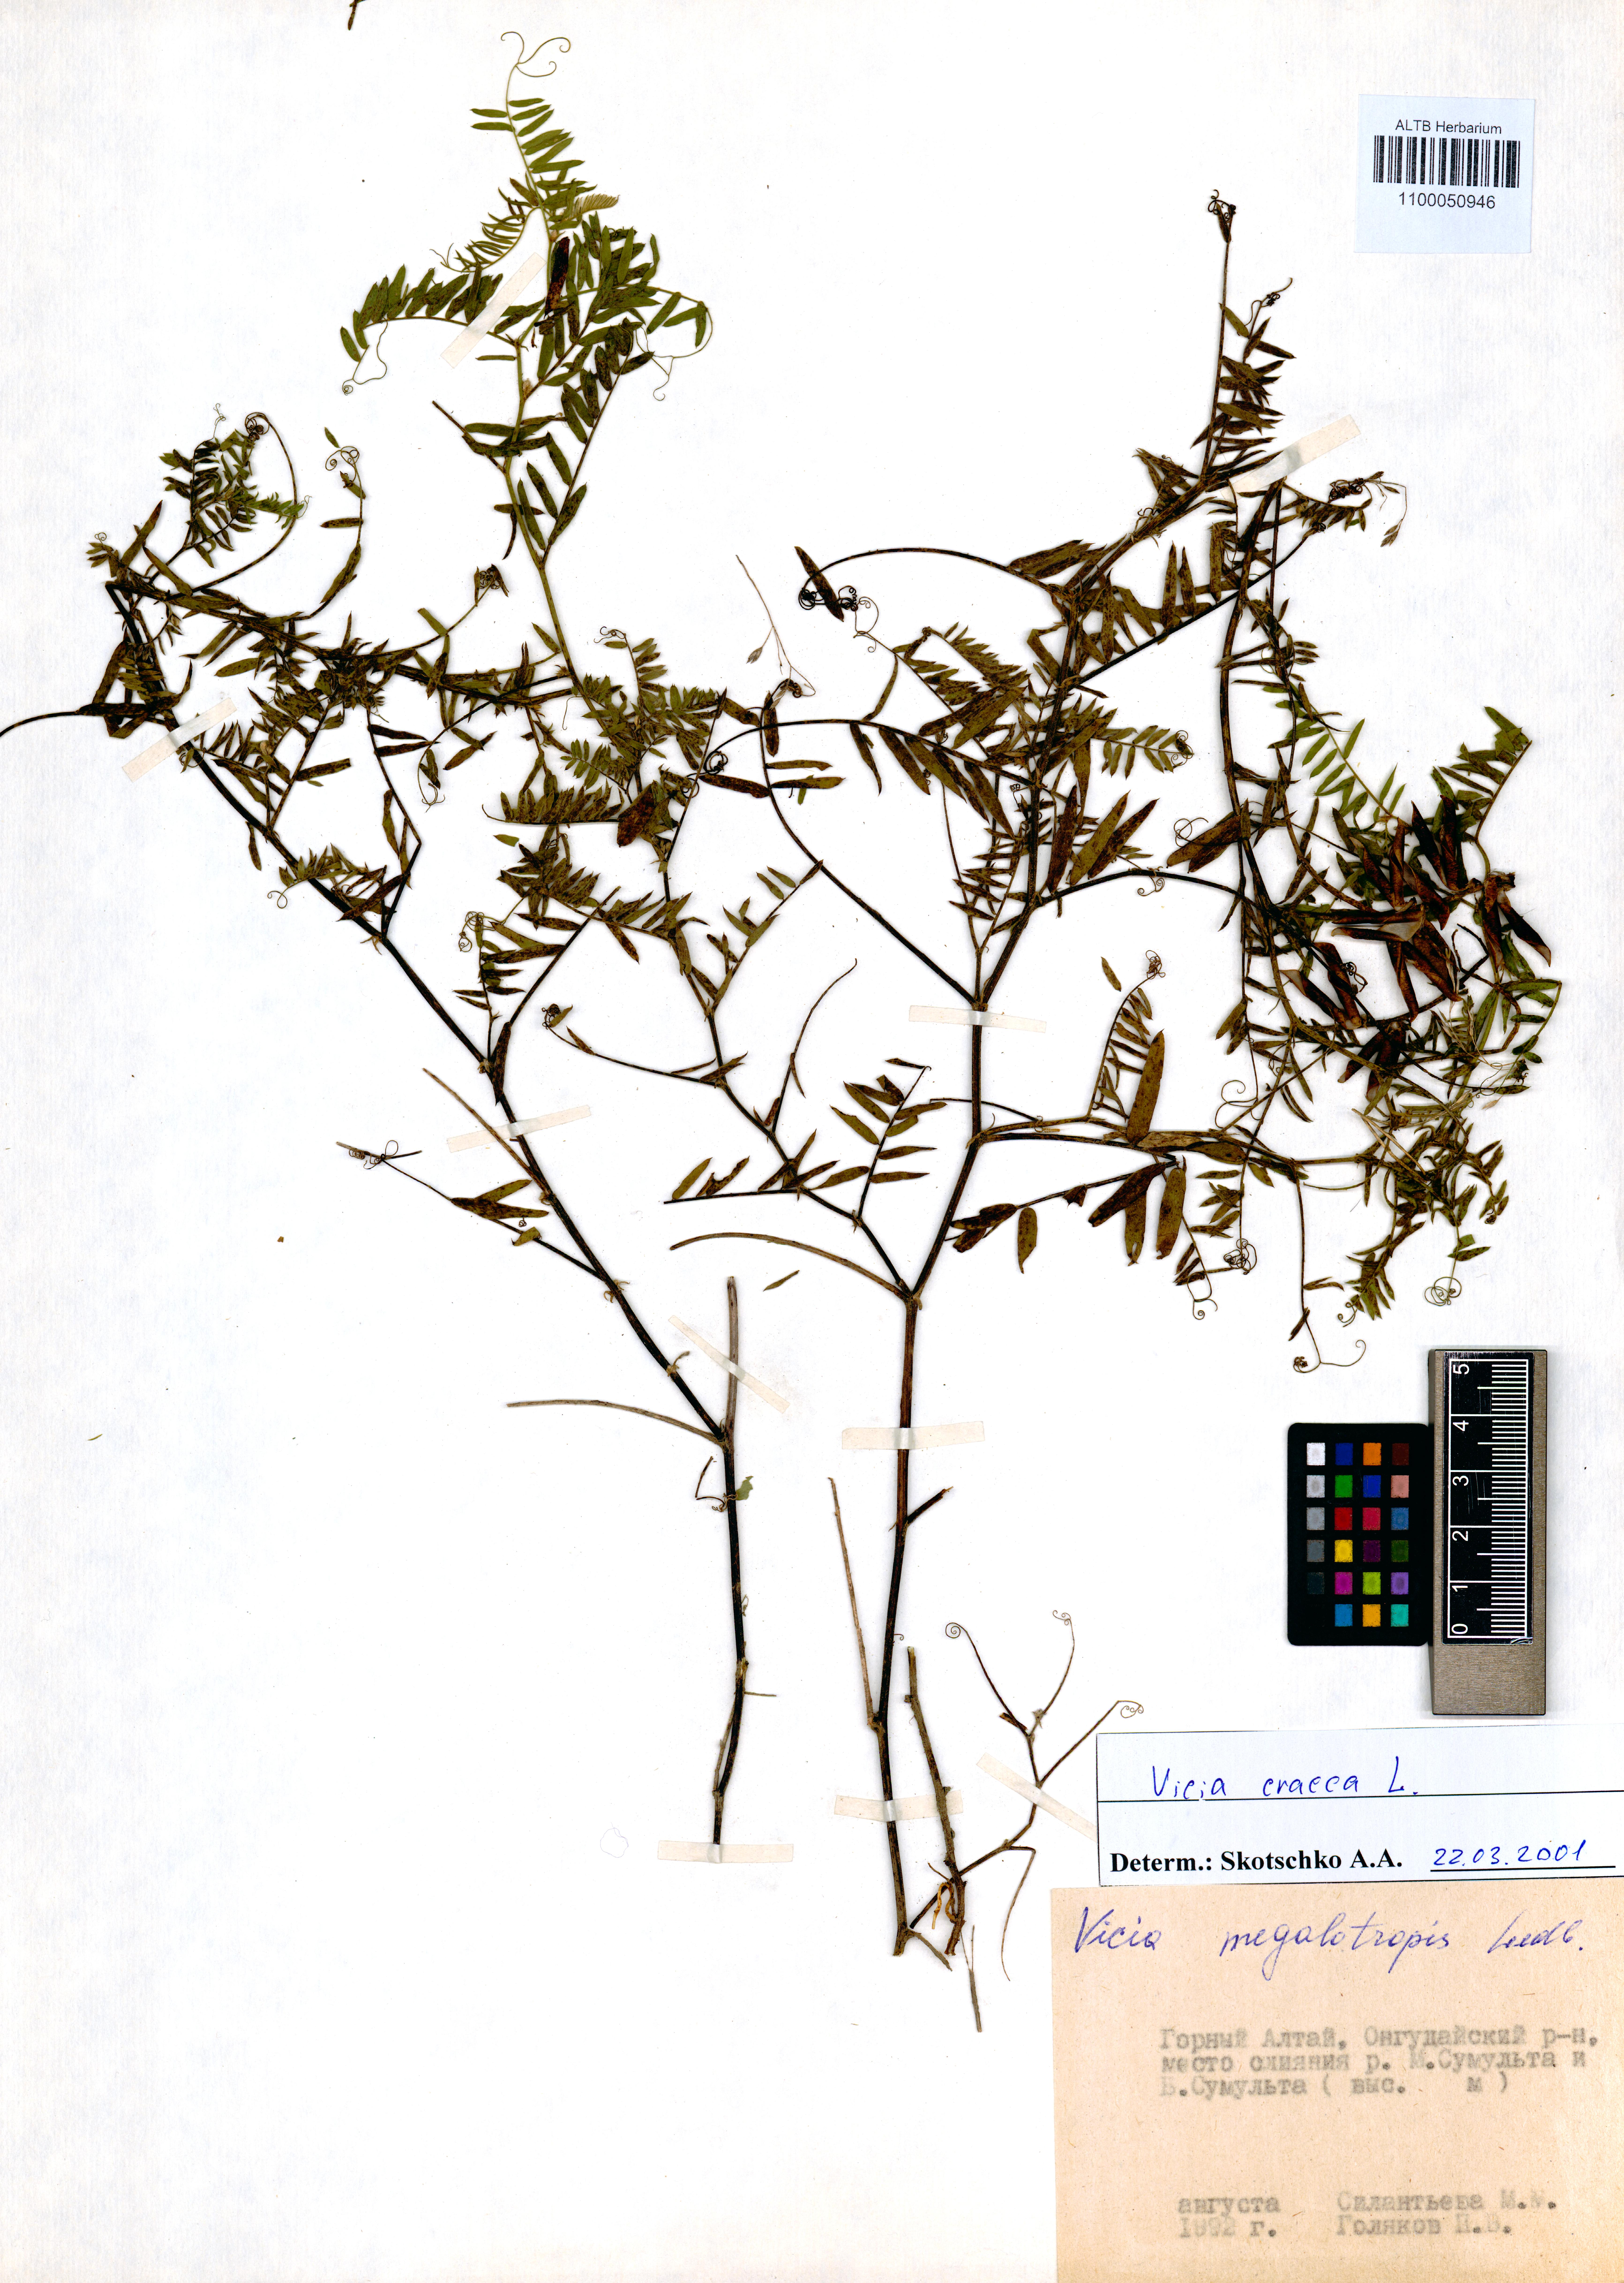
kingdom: Plantae
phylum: Tracheophyta
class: Magnoliopsida
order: Fabales
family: Fabaceae
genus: Vicia
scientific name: Vicia cracca
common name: Bird vetch
